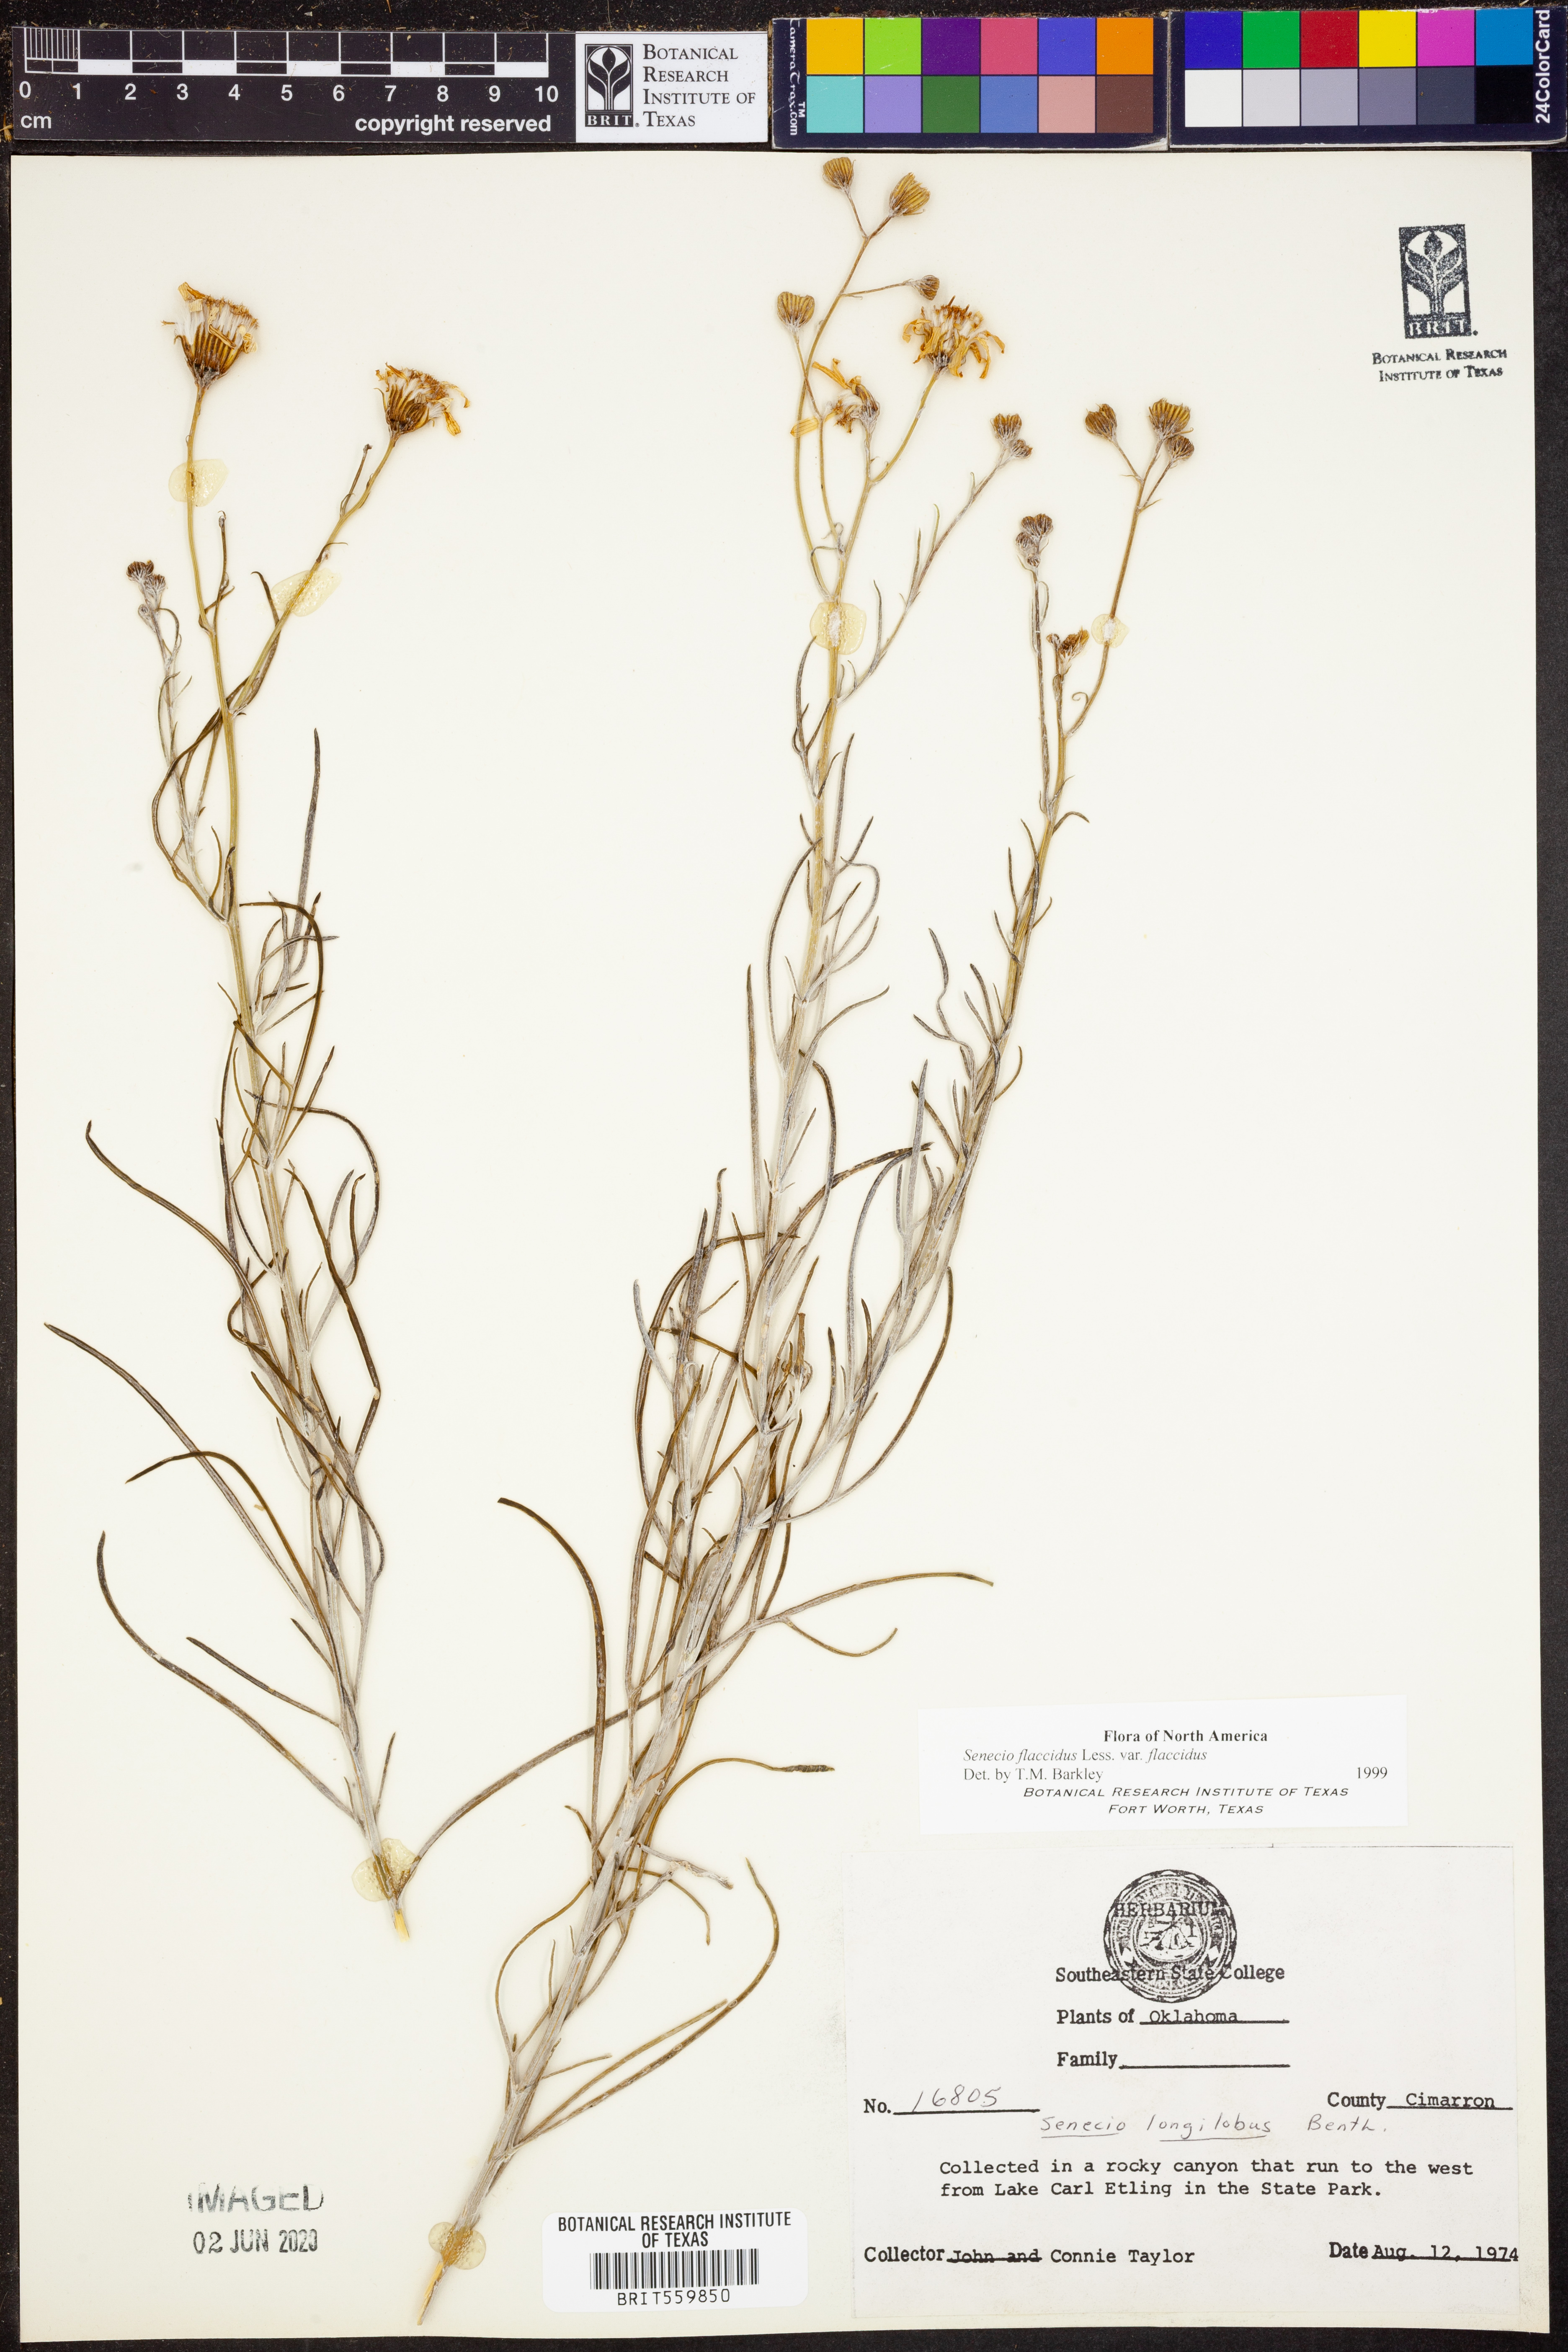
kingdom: Plantae
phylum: Tracheophyta
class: Magnoliopsida
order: Asterales
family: Asteraceae
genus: Senecio
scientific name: Senecio flaccidus
